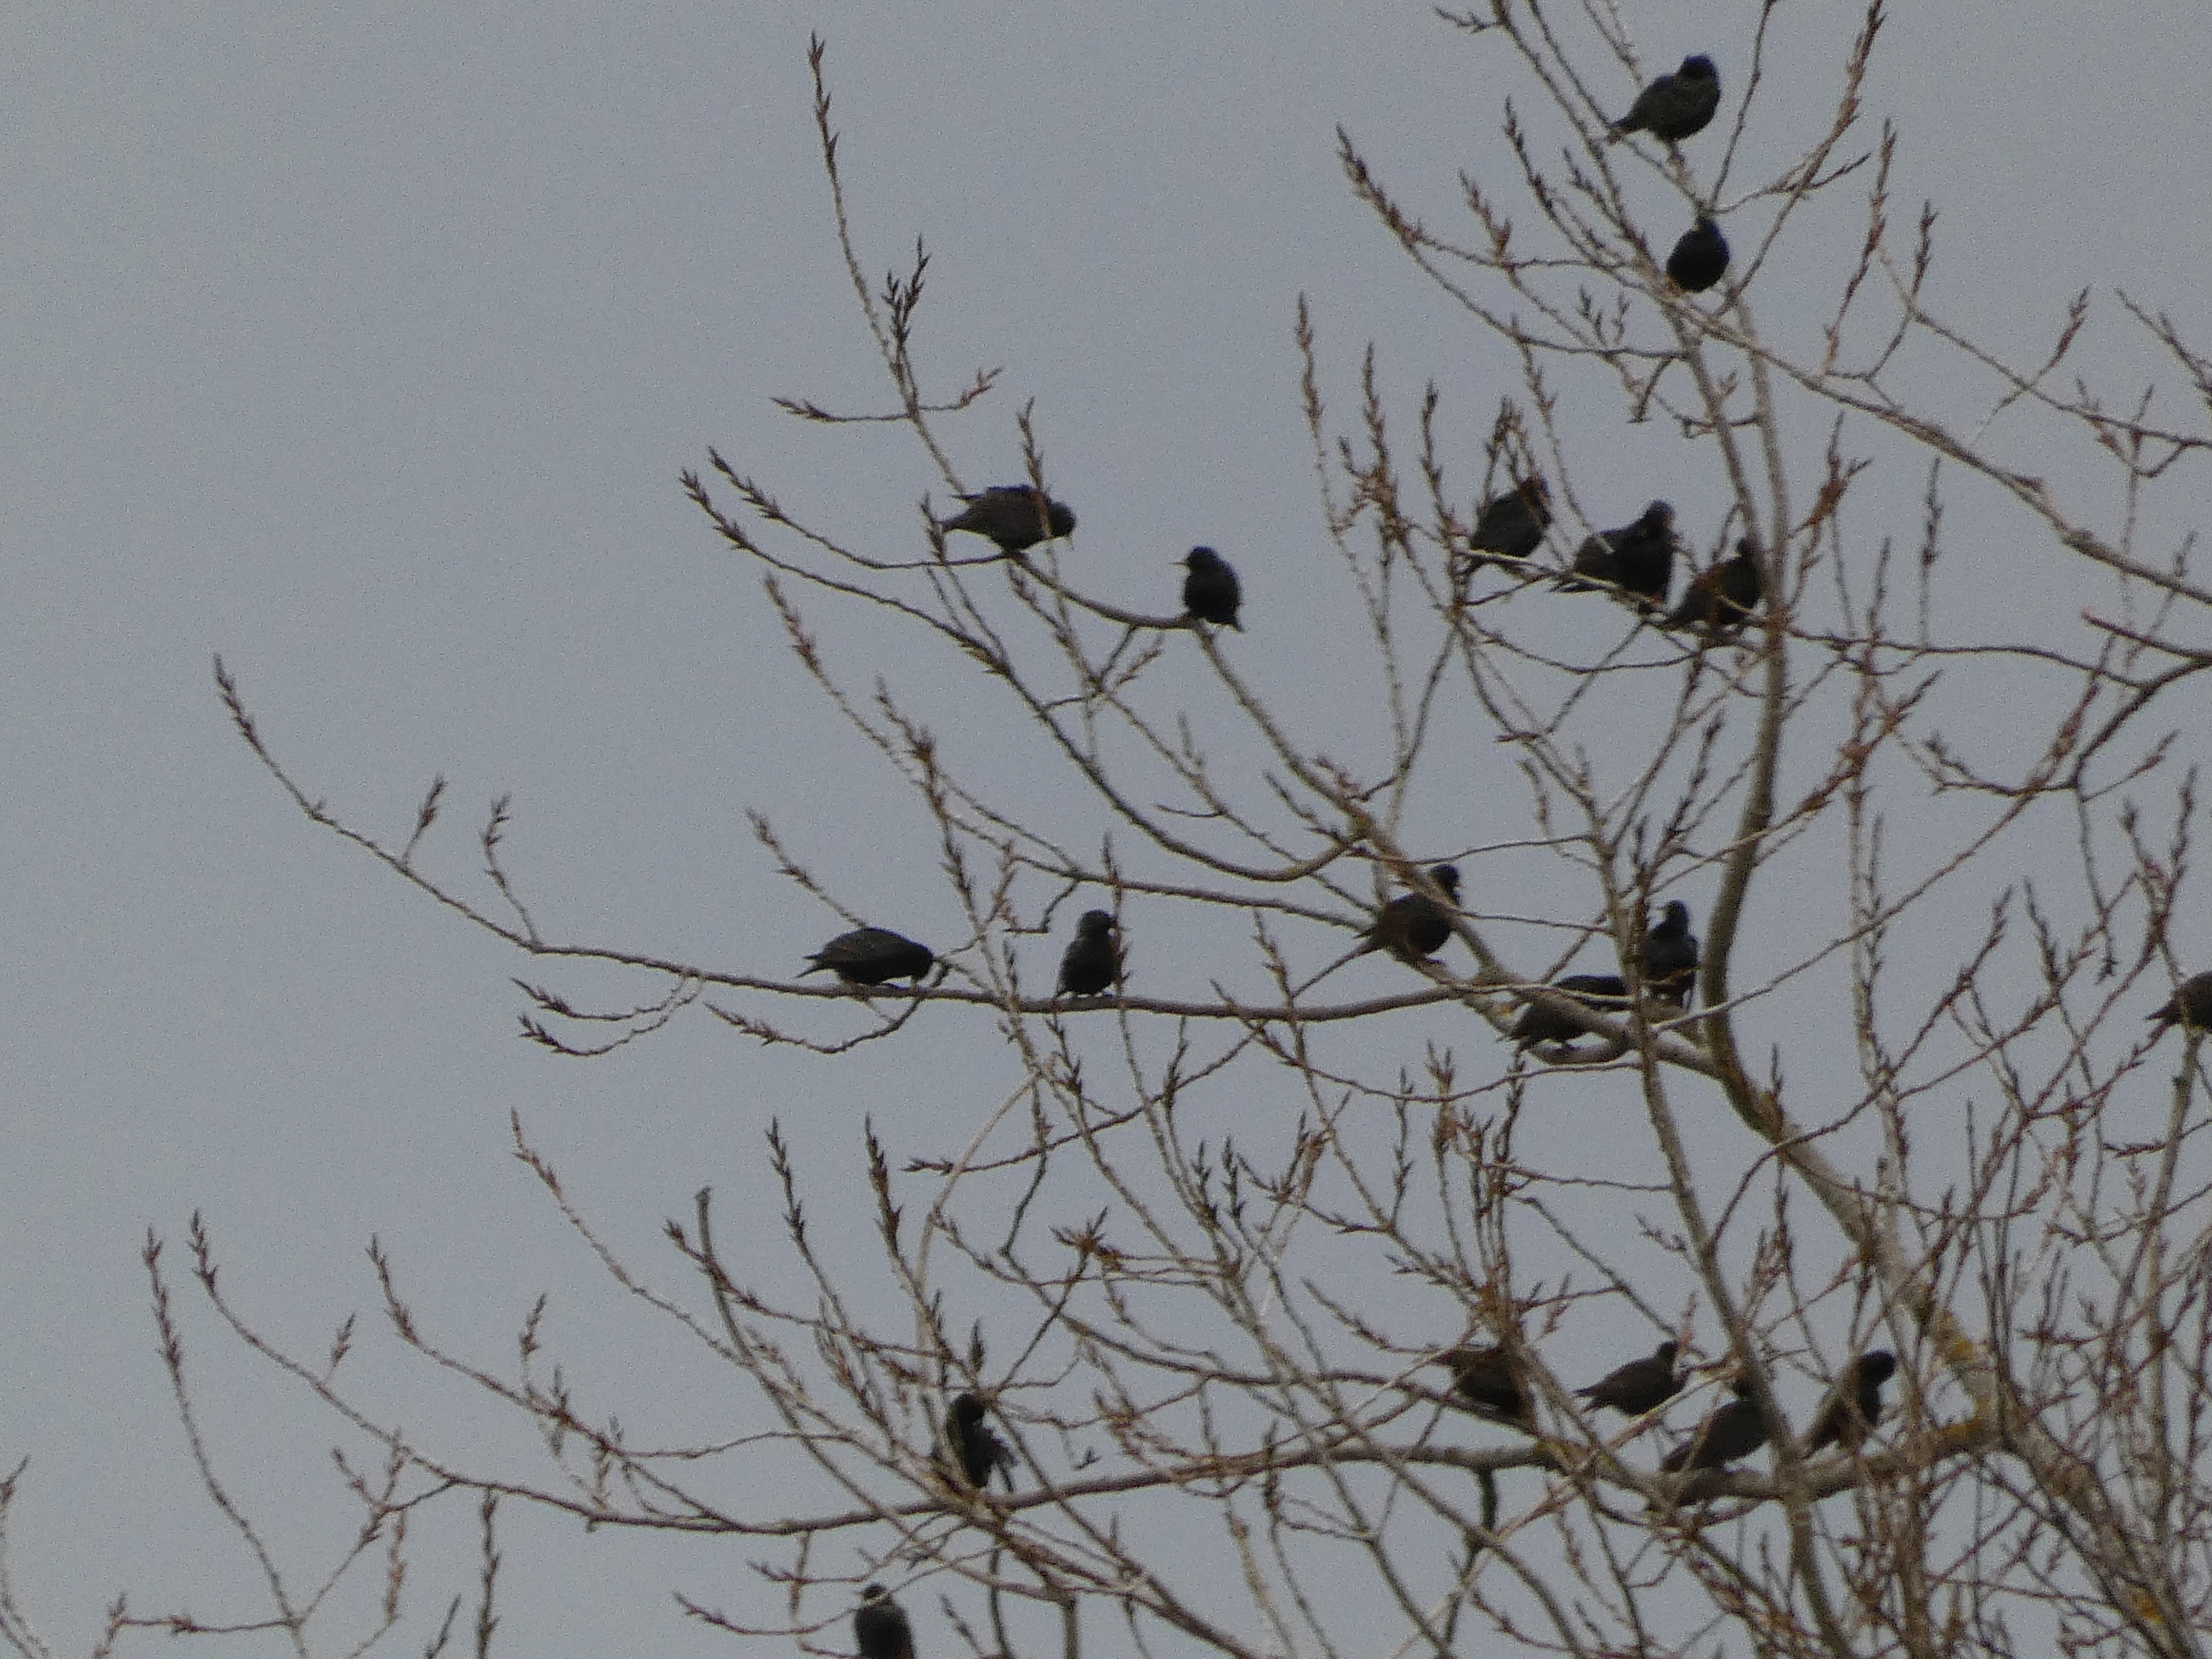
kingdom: Animalia
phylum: Chordata
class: Aves
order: Passeriformes
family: Sturnidae
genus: Sturnus
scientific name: Sturnus vulgaris
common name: Stær
